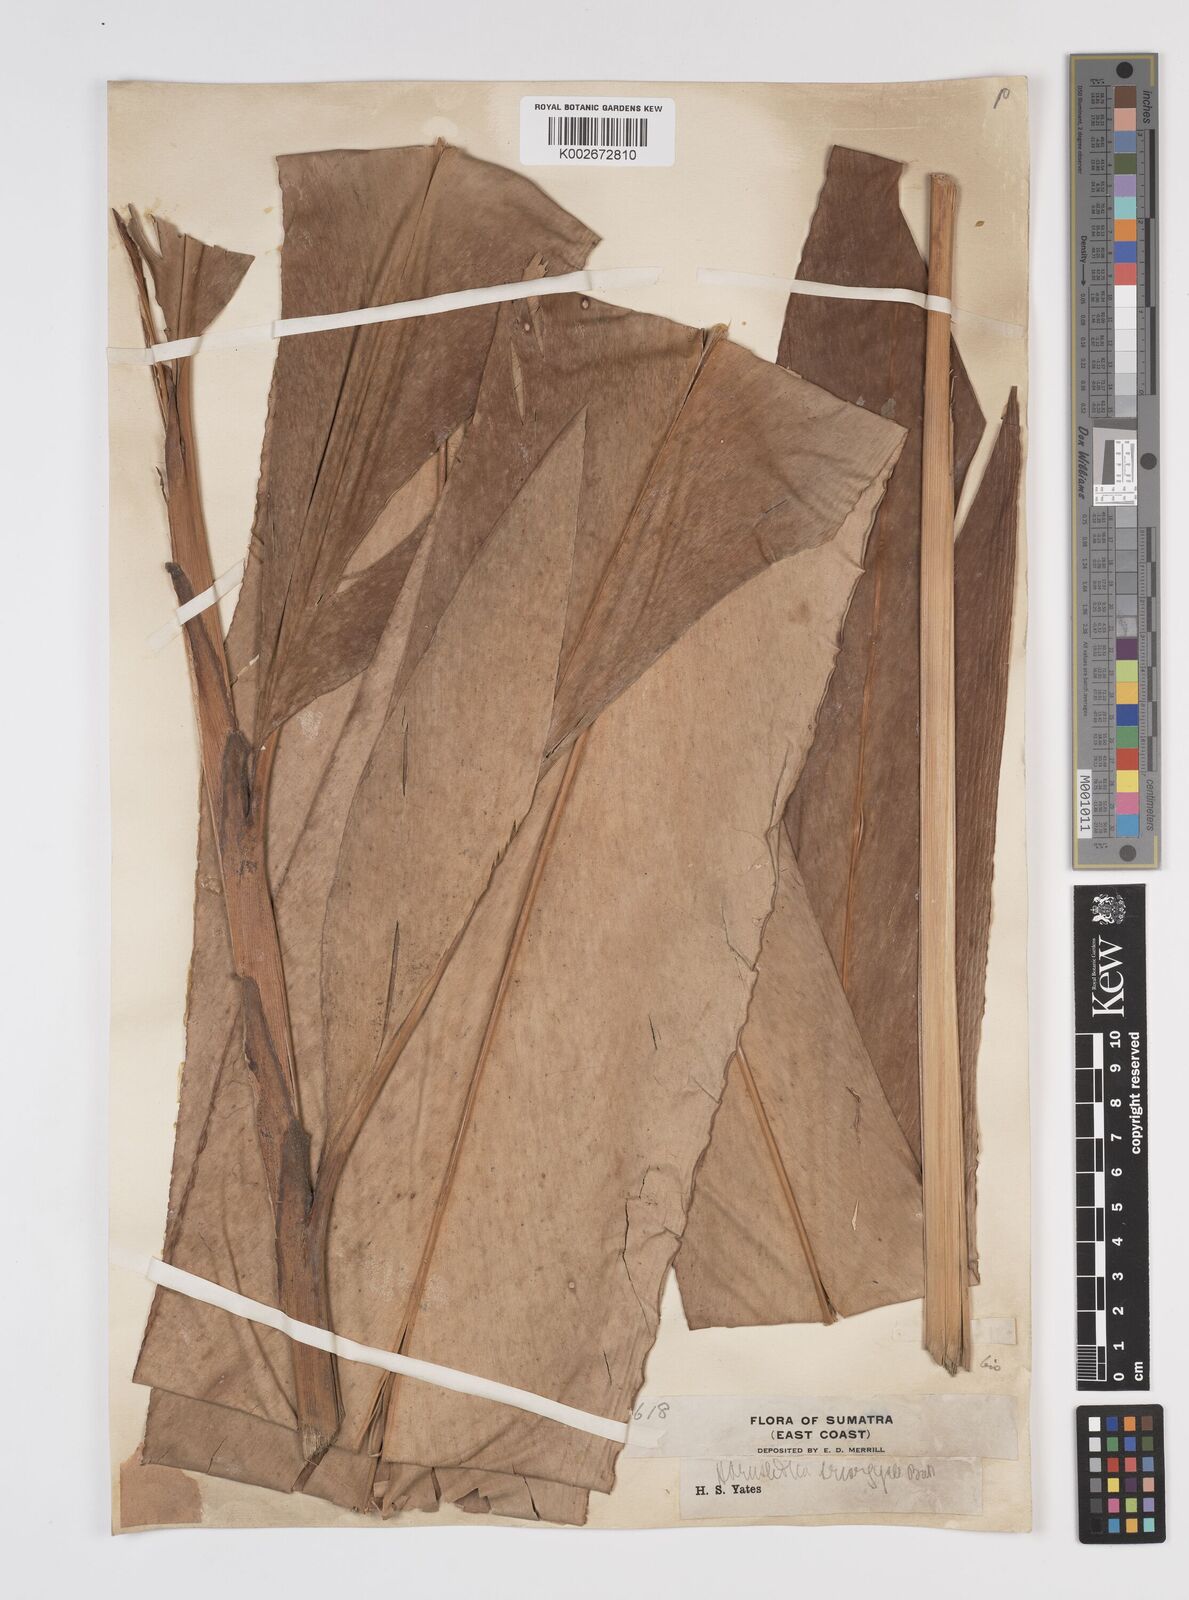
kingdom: Plantae
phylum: Tracheophyta
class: Liliopsida
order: Zingiberales
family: Zingiberaceae
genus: Etlingera
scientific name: Etlingera triorgyalis
